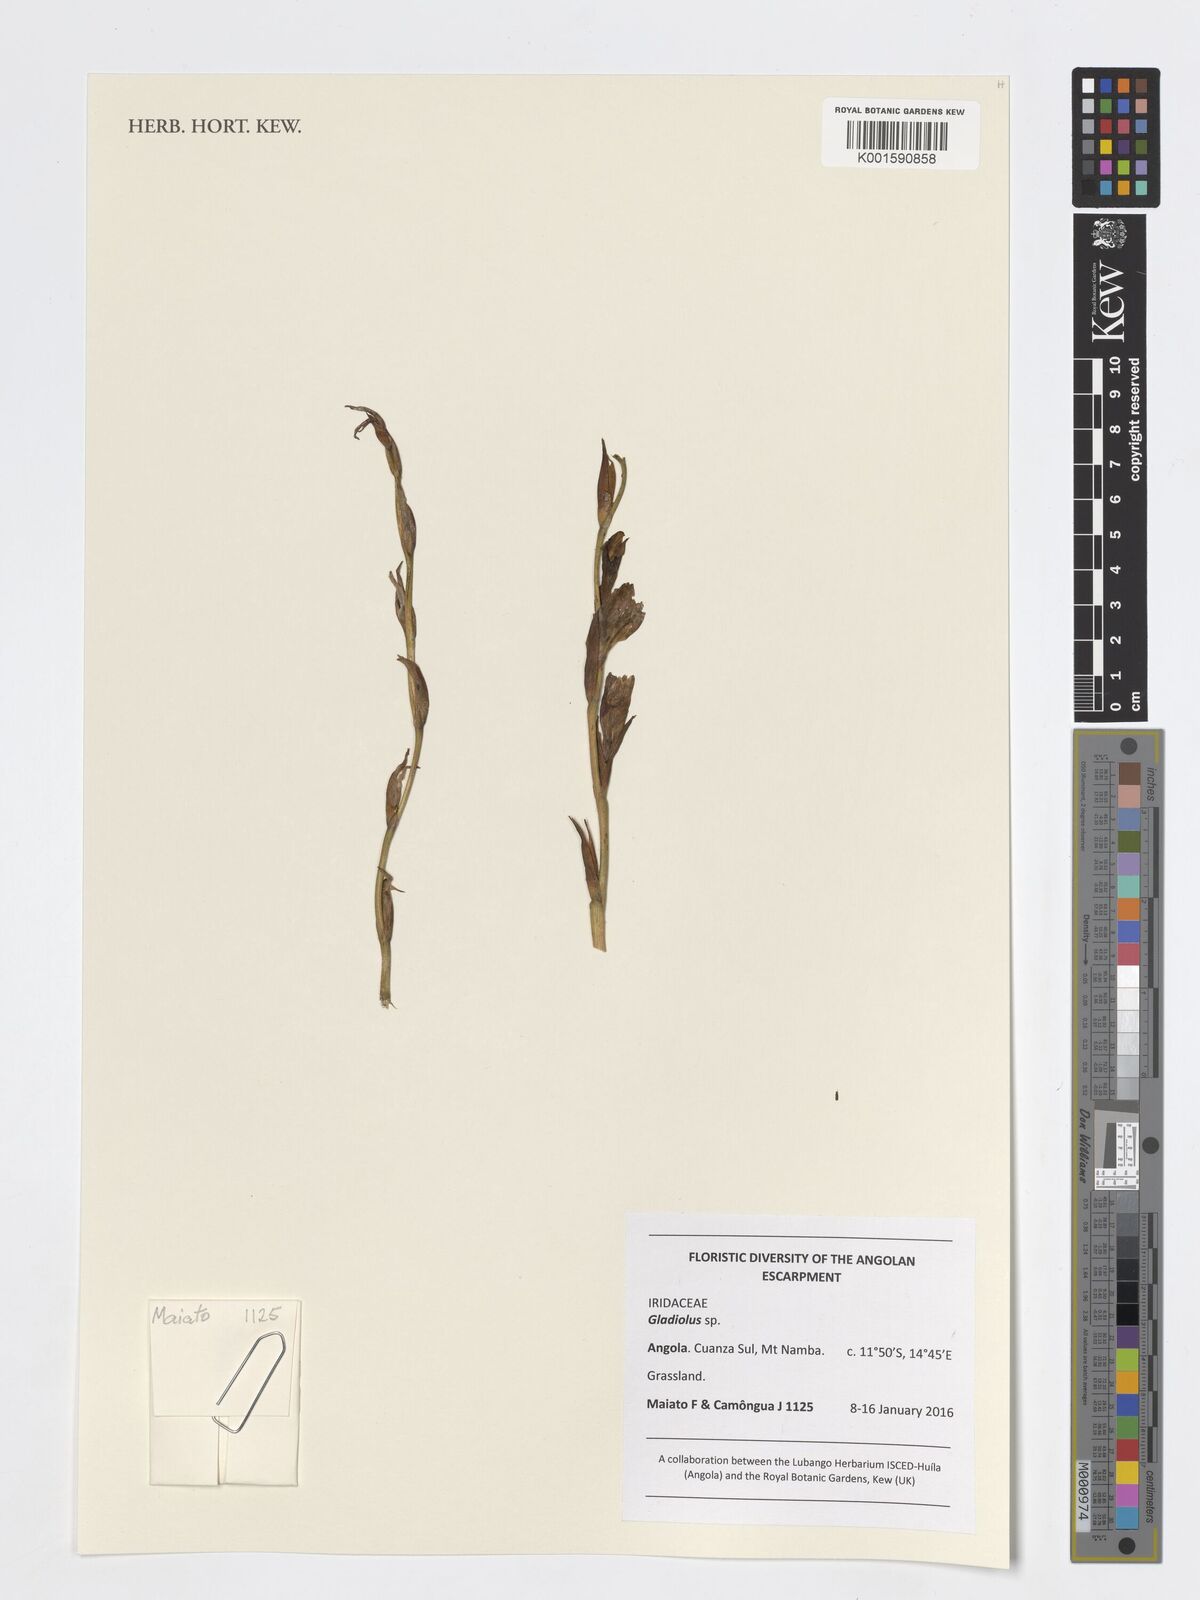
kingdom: Plantae
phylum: Tracheophyta
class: Liliopsida
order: Asparagales
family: Iridaceae
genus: Gladiolus
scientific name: Gladiolus
